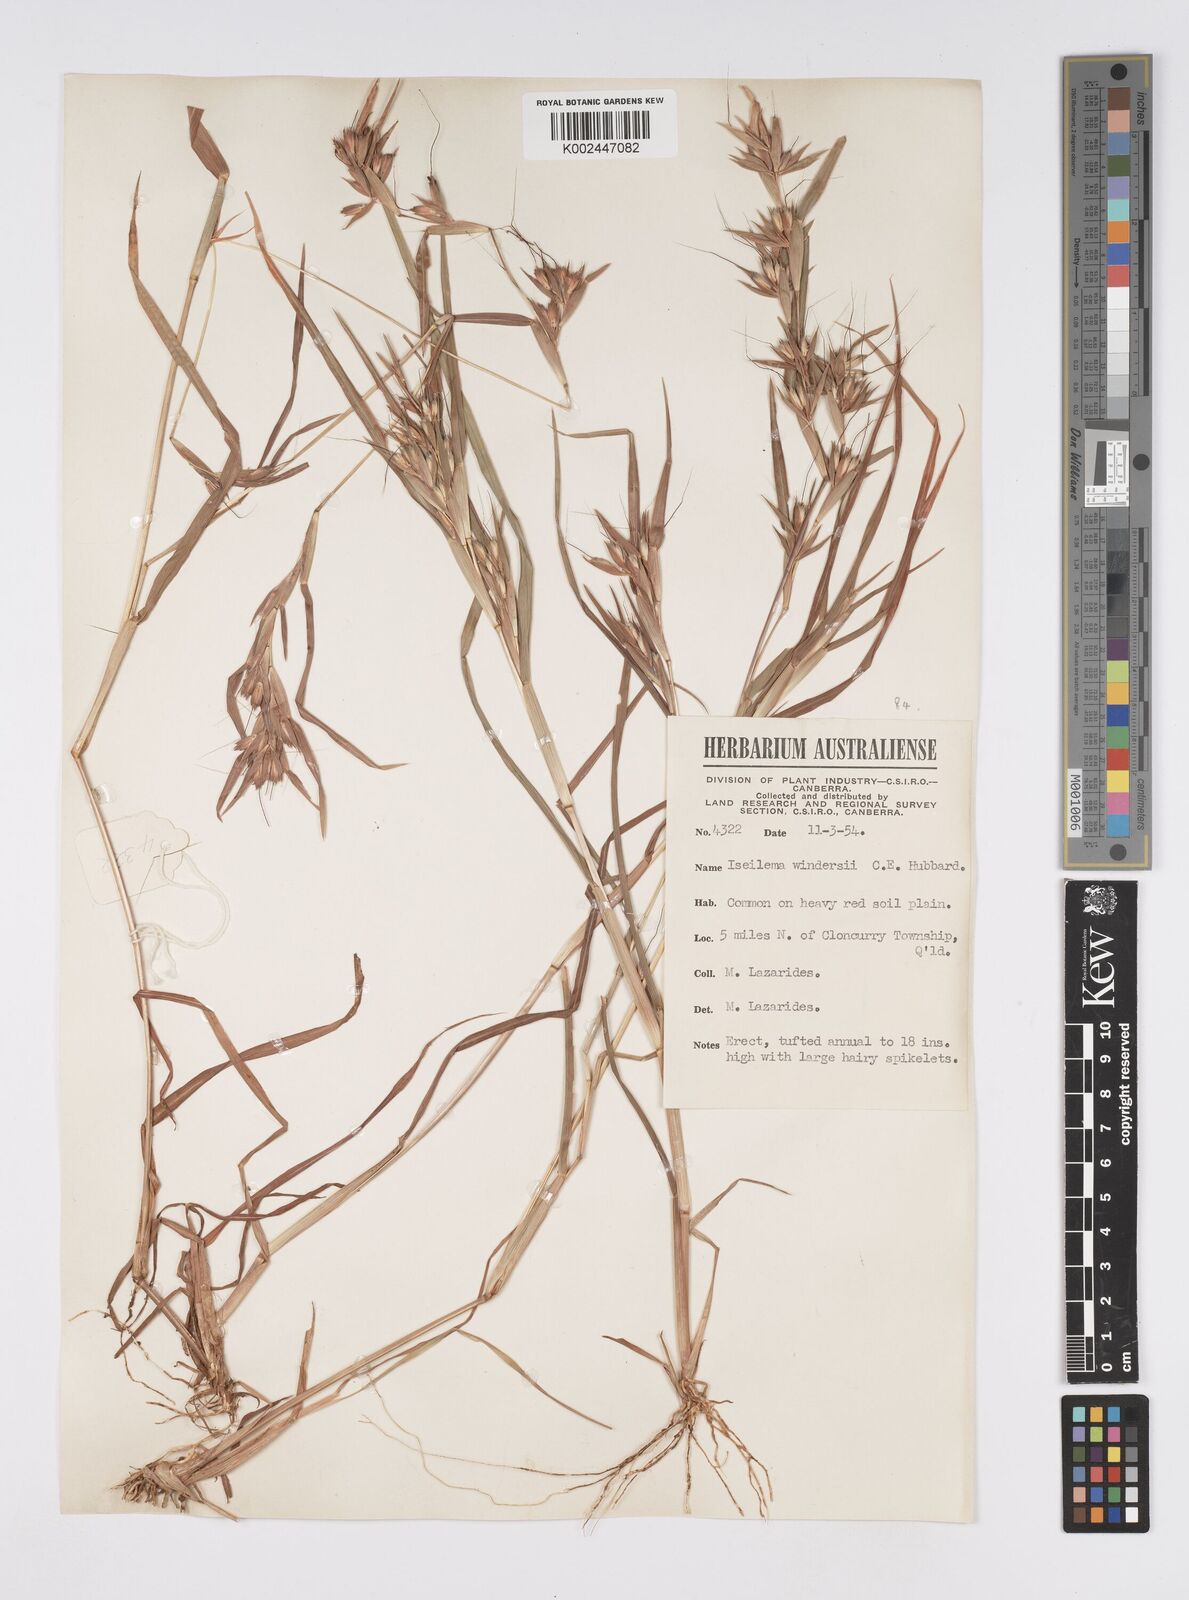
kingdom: Plantae
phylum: Tracheophyta
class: Liliopsida
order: Poales
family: Poaceae
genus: Iseilema
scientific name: Iseilema windersii
